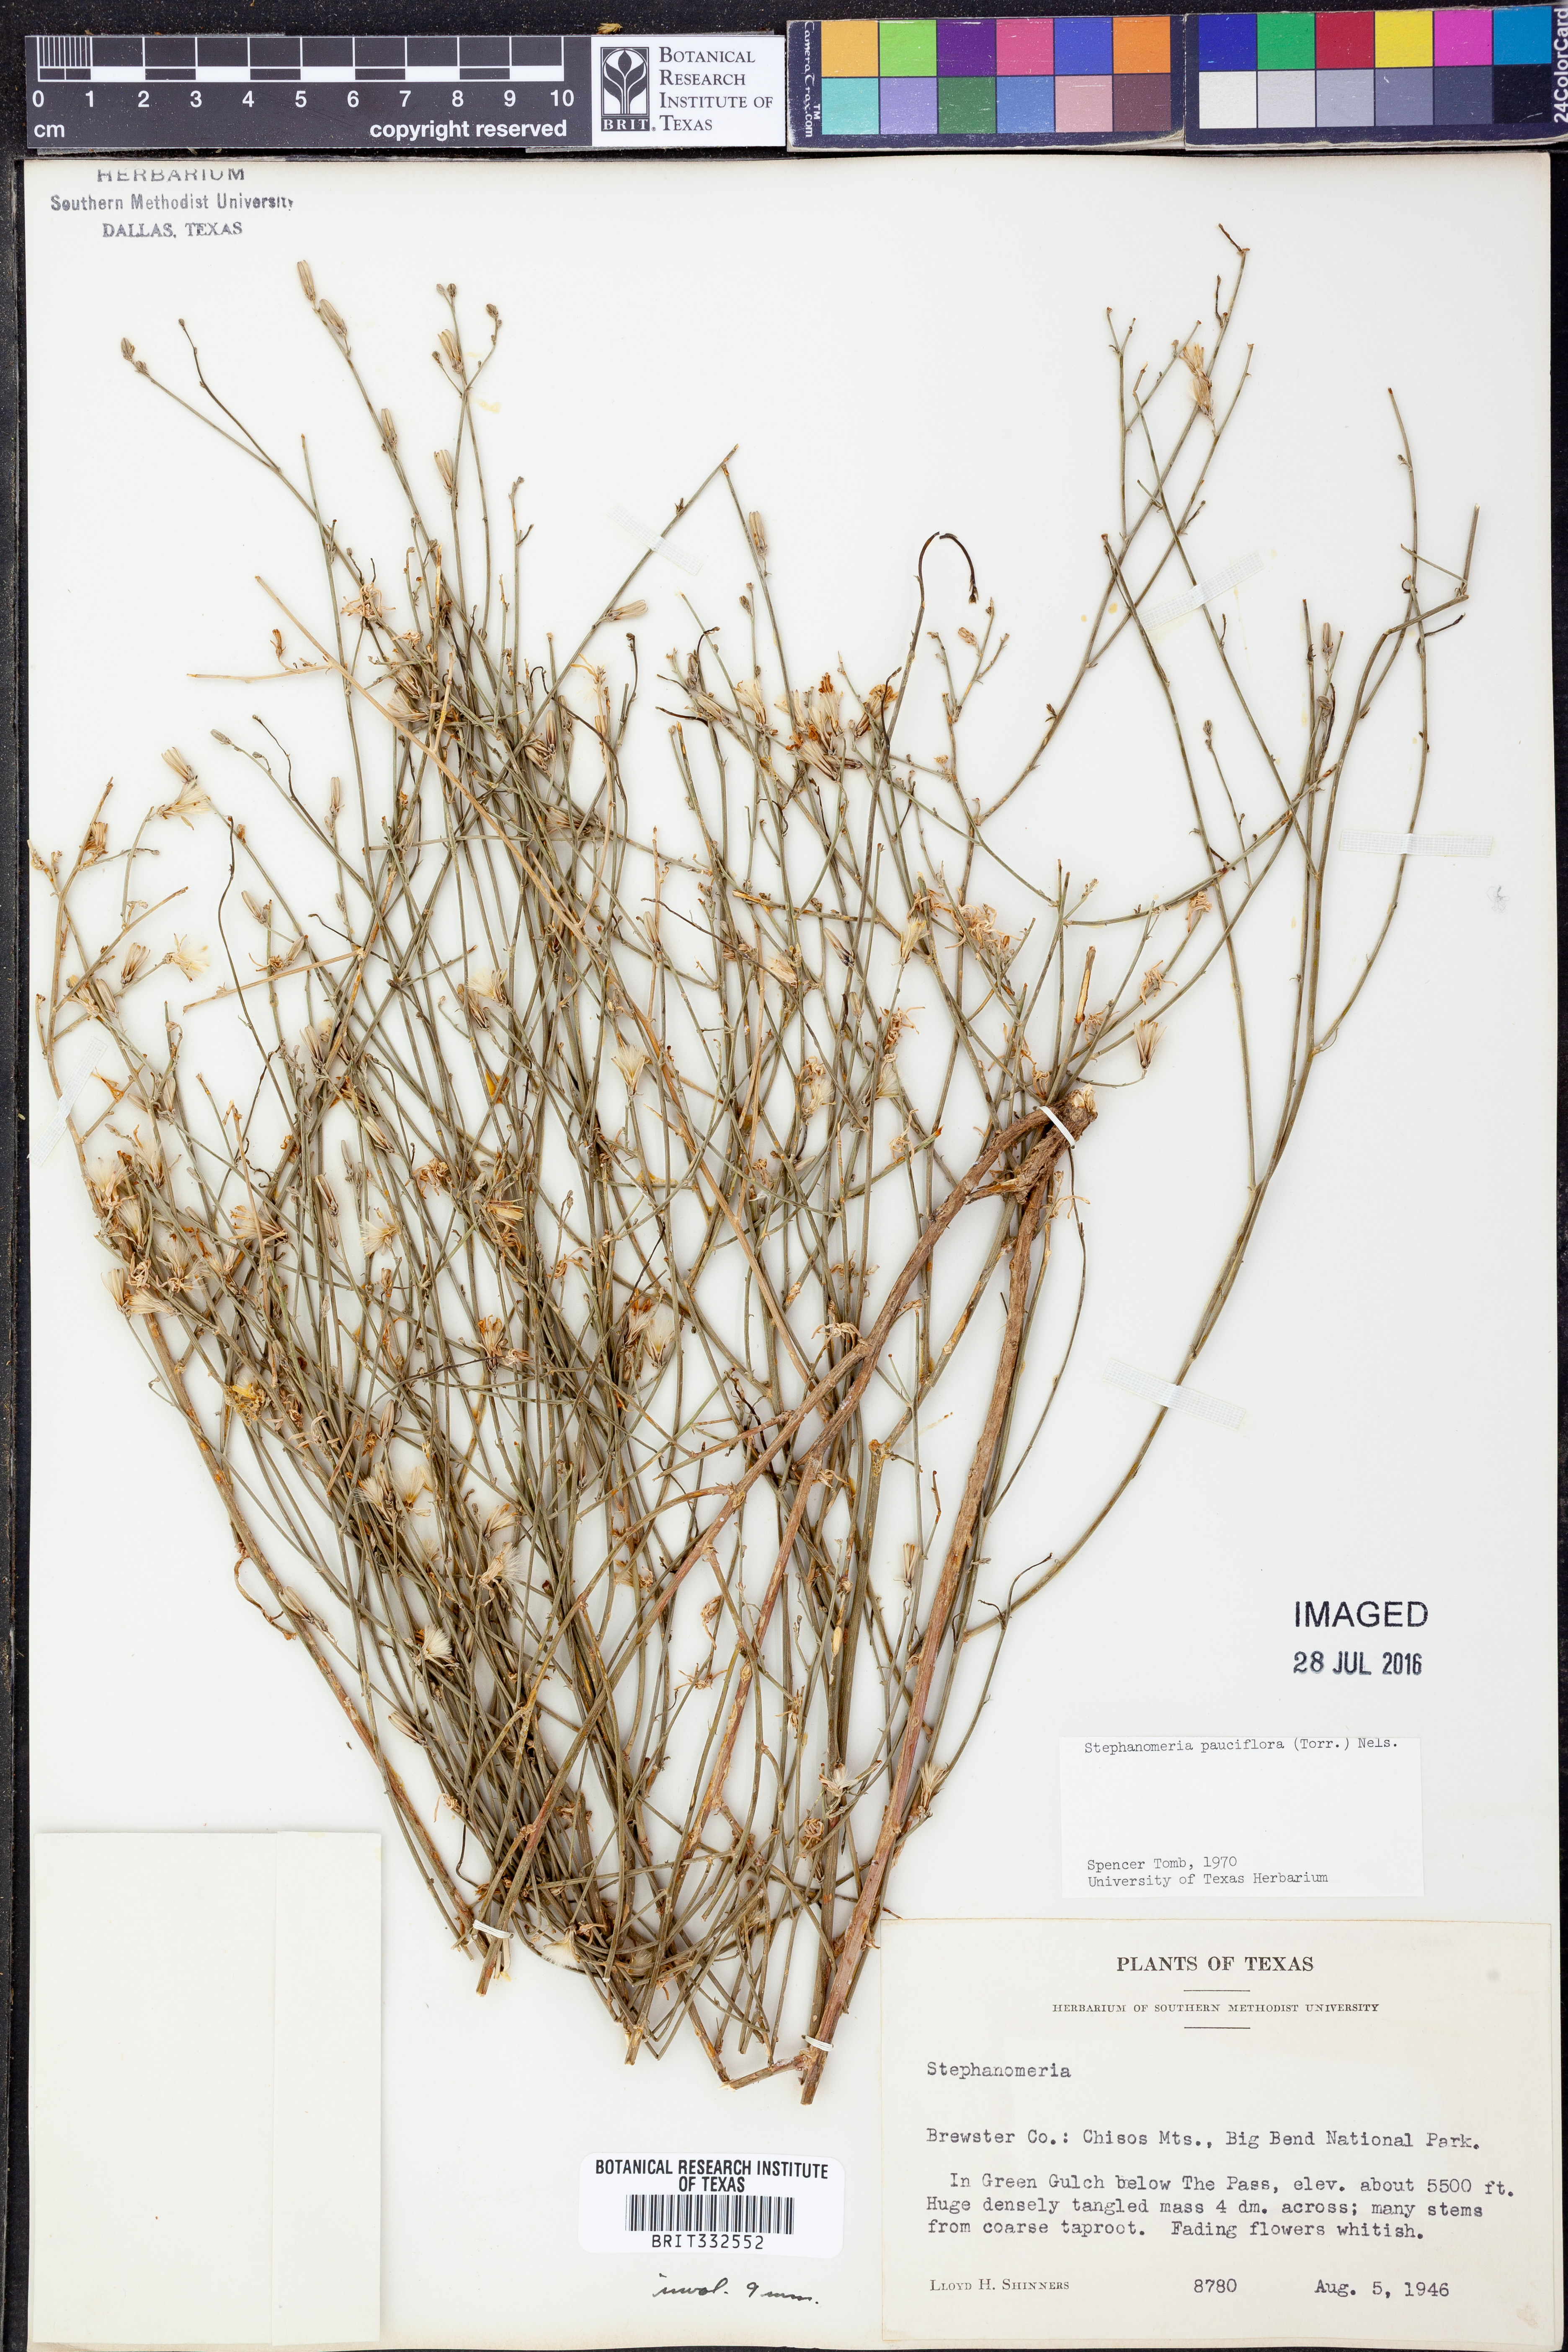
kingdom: Plantae
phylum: Tracheophyta
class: Magnoliopsida
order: Asterales
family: Asteraceae
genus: Stephanomeria
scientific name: Stephanomeria pauciflora
